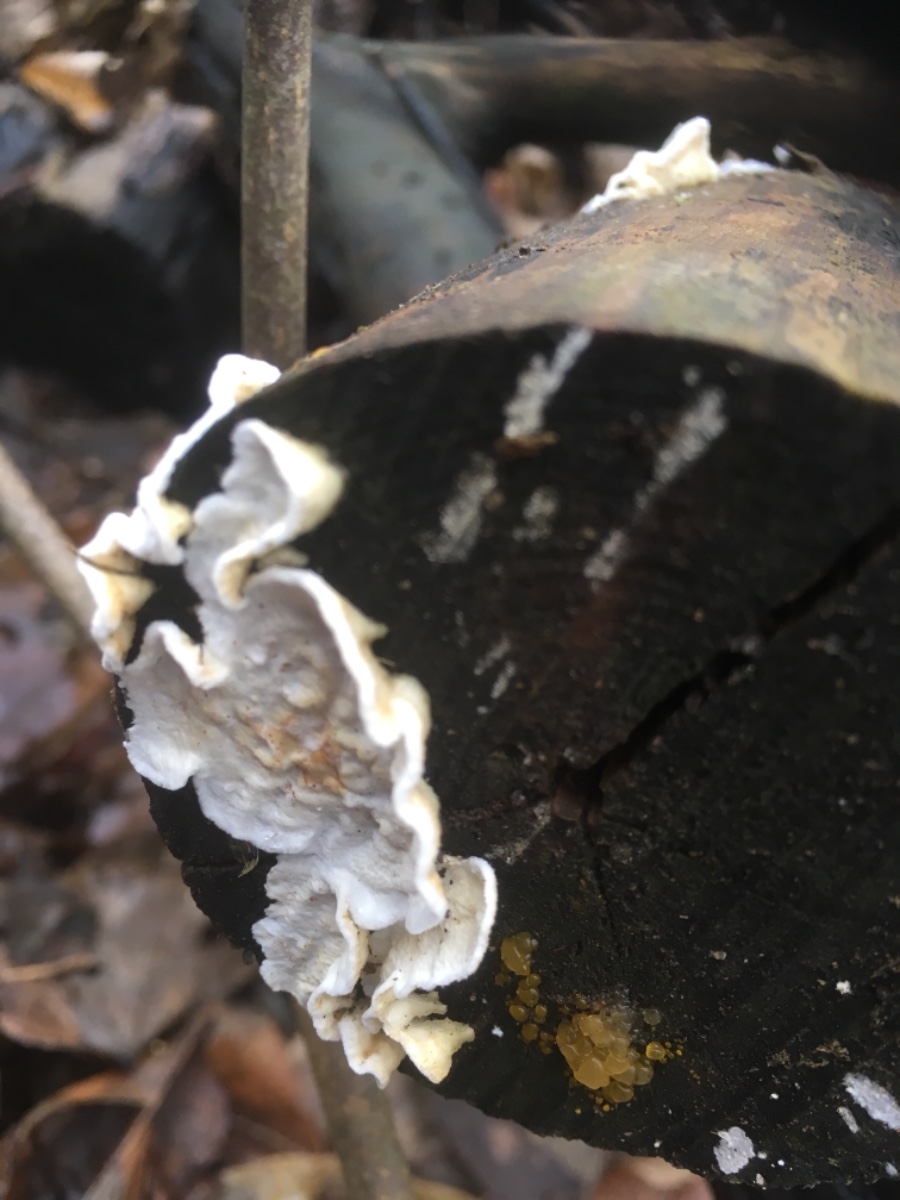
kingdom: Fungi
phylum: Basidiomycota
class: Agaricomycetes
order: Polyporales
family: Irpicaceae
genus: Byssomerulius
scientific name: Byssomerulius corium
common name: læder-åresvamp
